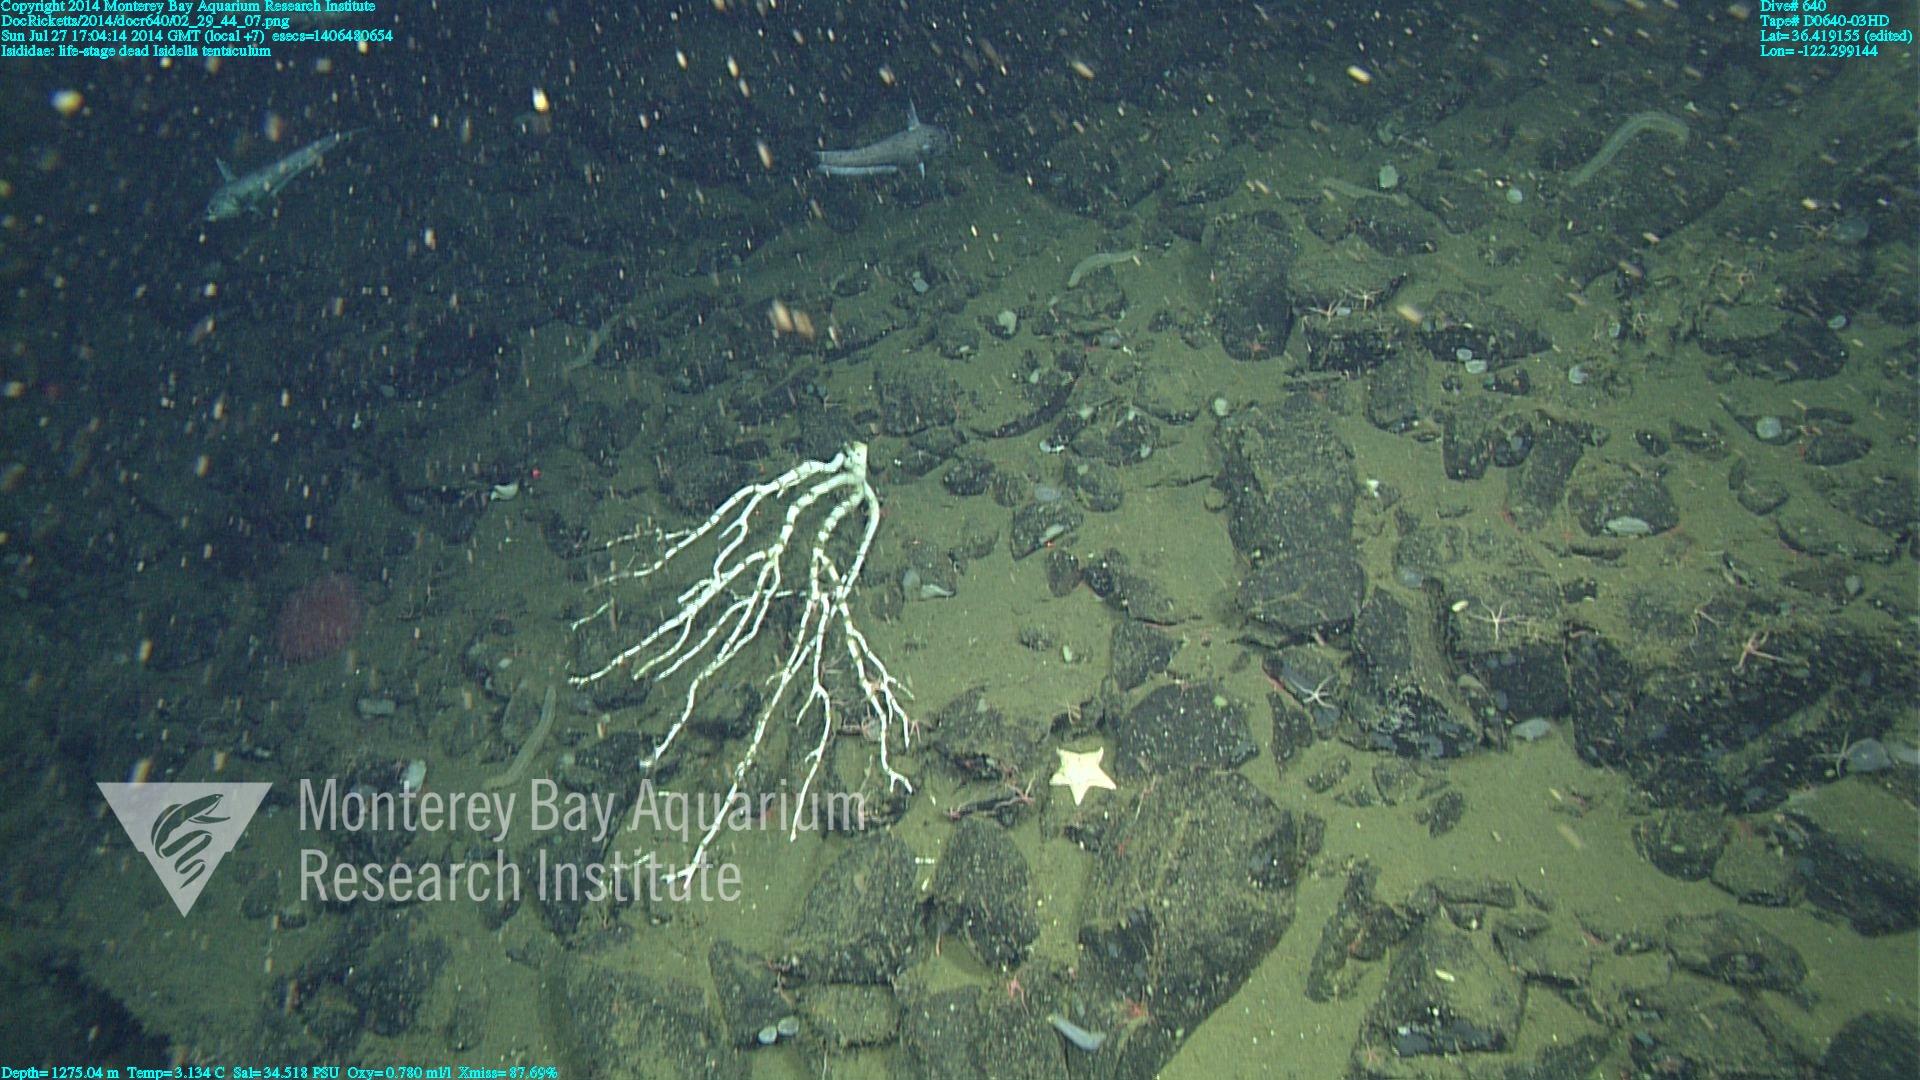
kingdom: Animalia
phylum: Cnidaria
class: Anthozoa
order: Scleralcyonacea
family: Keratoisididae
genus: Isidella
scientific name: Isidella tentaculum
